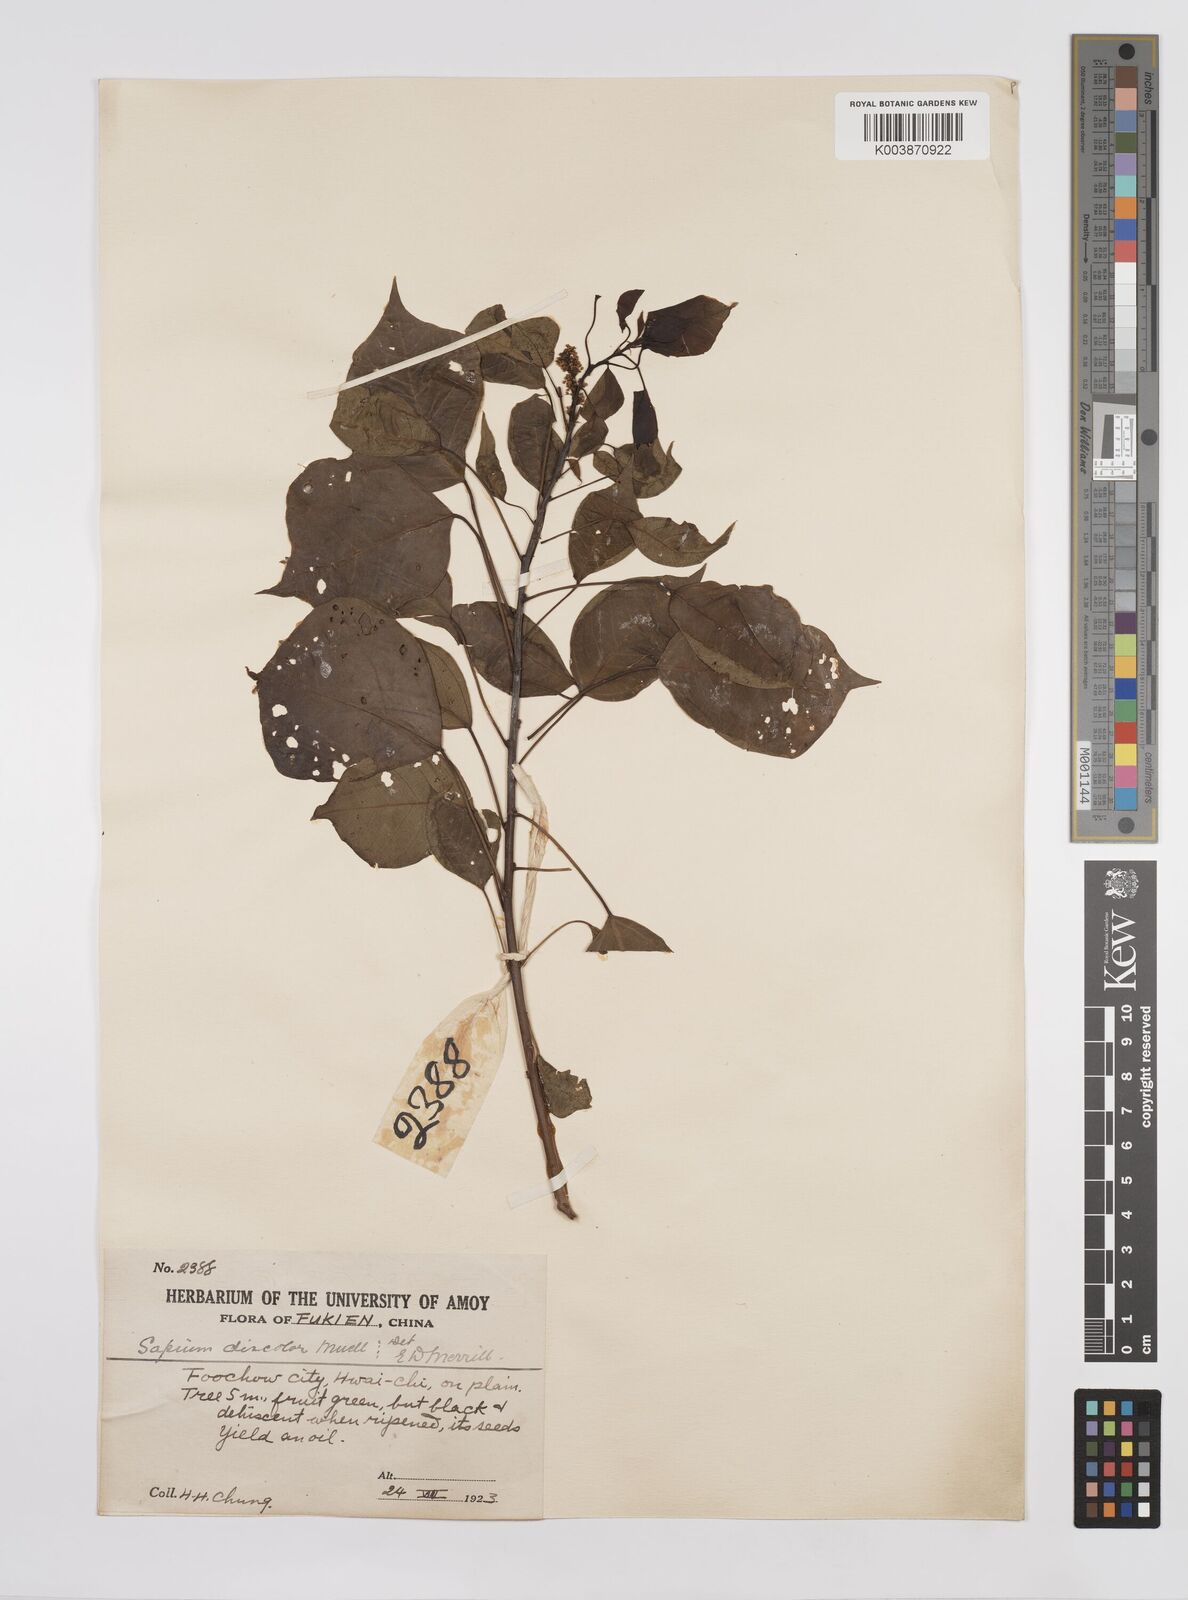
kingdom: Plantae
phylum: Tracheophyta
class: Magnoliopsida
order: Malpighiales
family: Euphorbiaceae
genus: Triadica
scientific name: Triadica cochinchinensis
